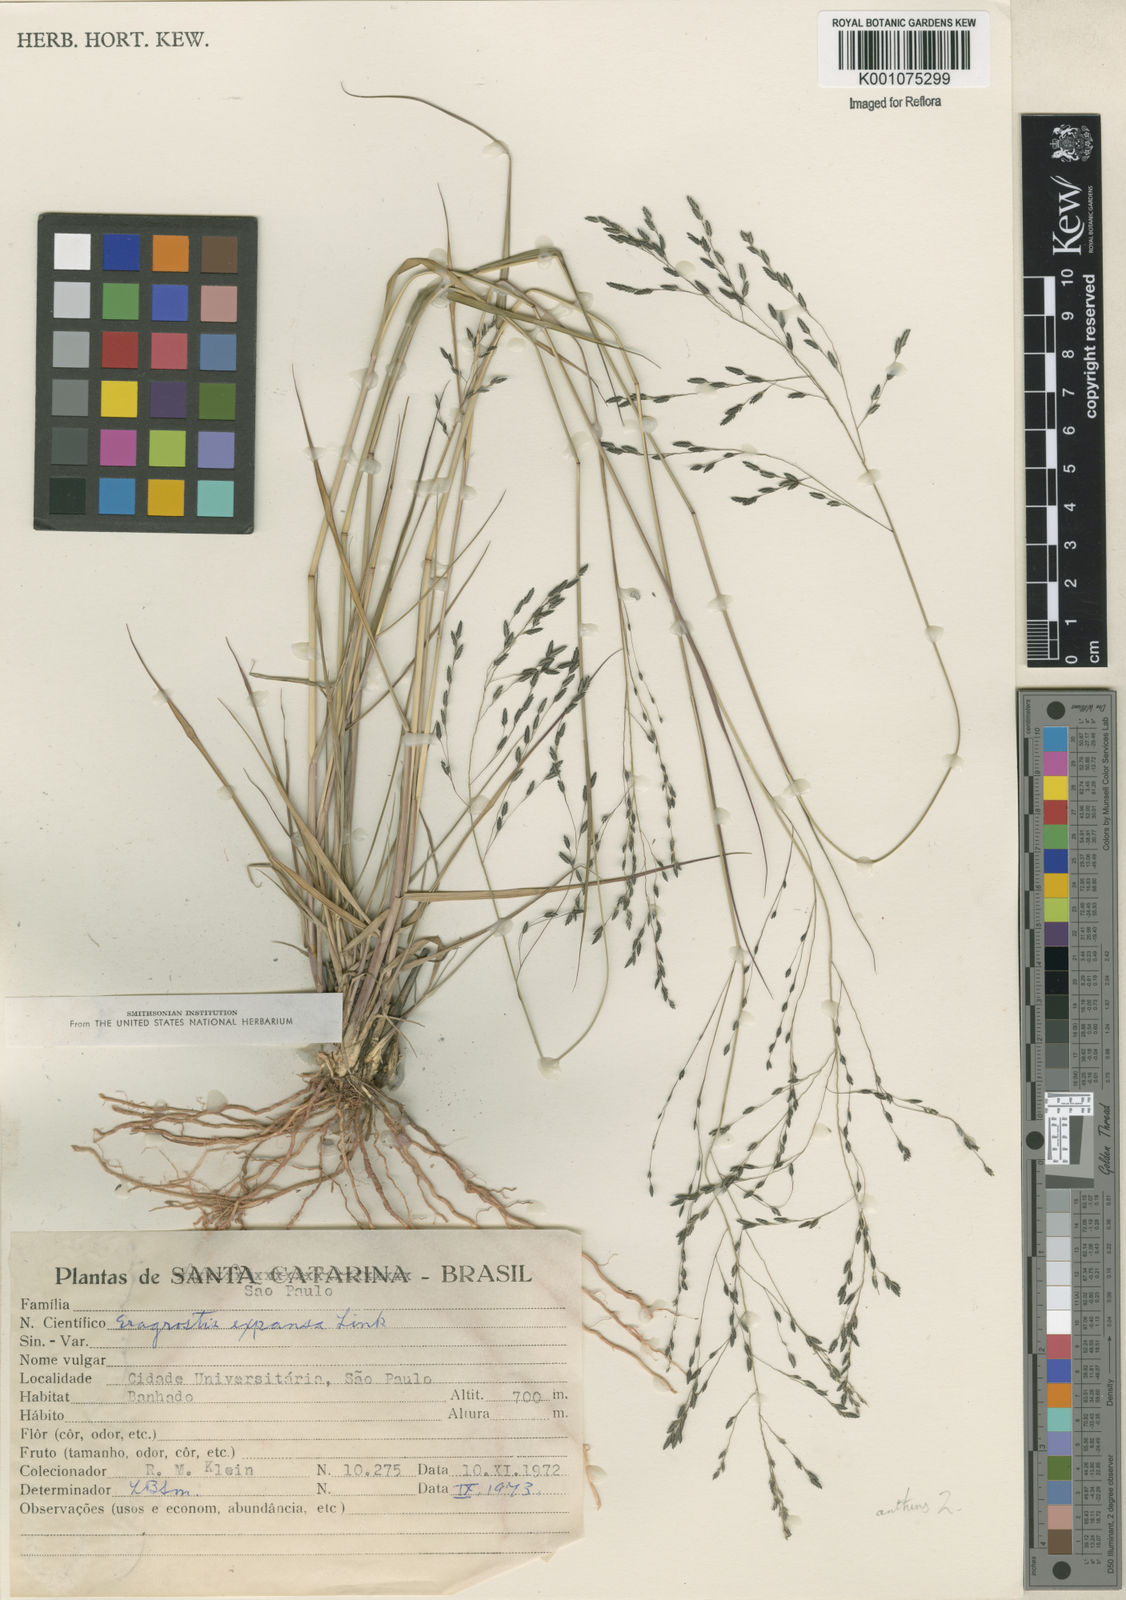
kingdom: Plantae
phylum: Tracheophyta
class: Liliopsida
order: Poales
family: Poaceae
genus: Eragrostis
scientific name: Eragrostis bahiensis
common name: Bahia lovegrass
